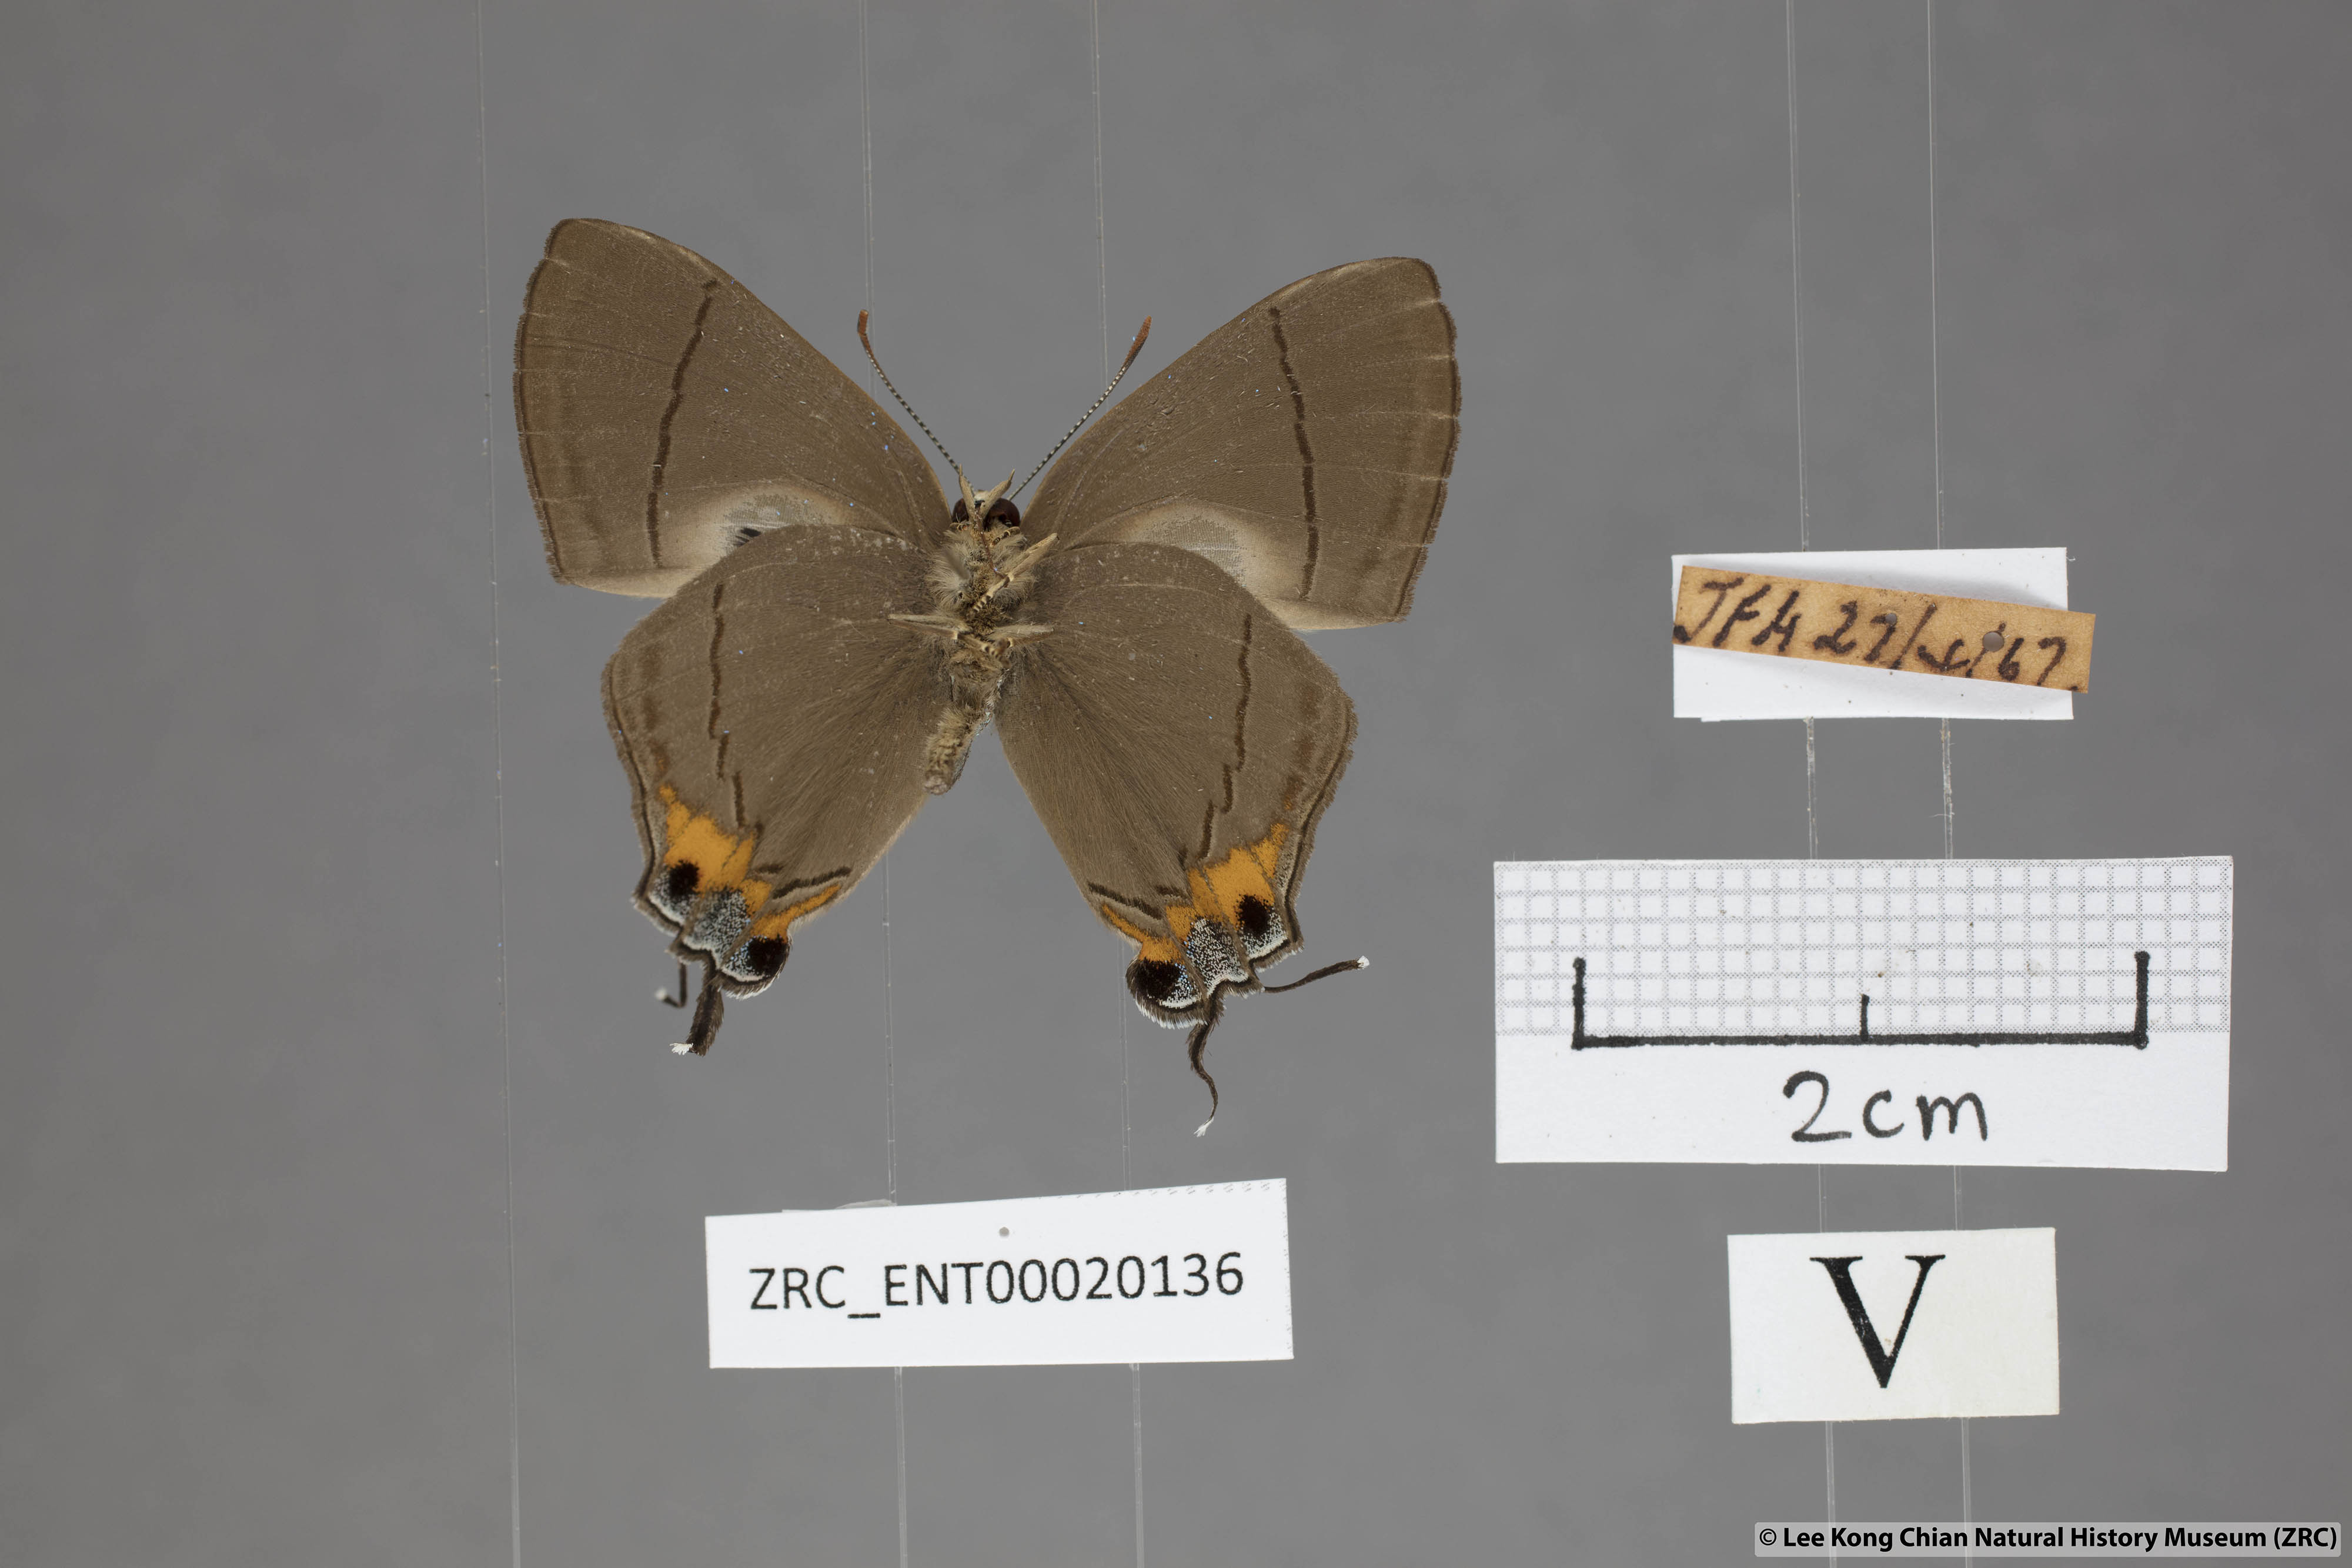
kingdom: Animalia
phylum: Arthropoda
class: Insecta
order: Lepidoptera
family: Lycaenidae
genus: Creon
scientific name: Creon cleobis
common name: Broad-tail royal
